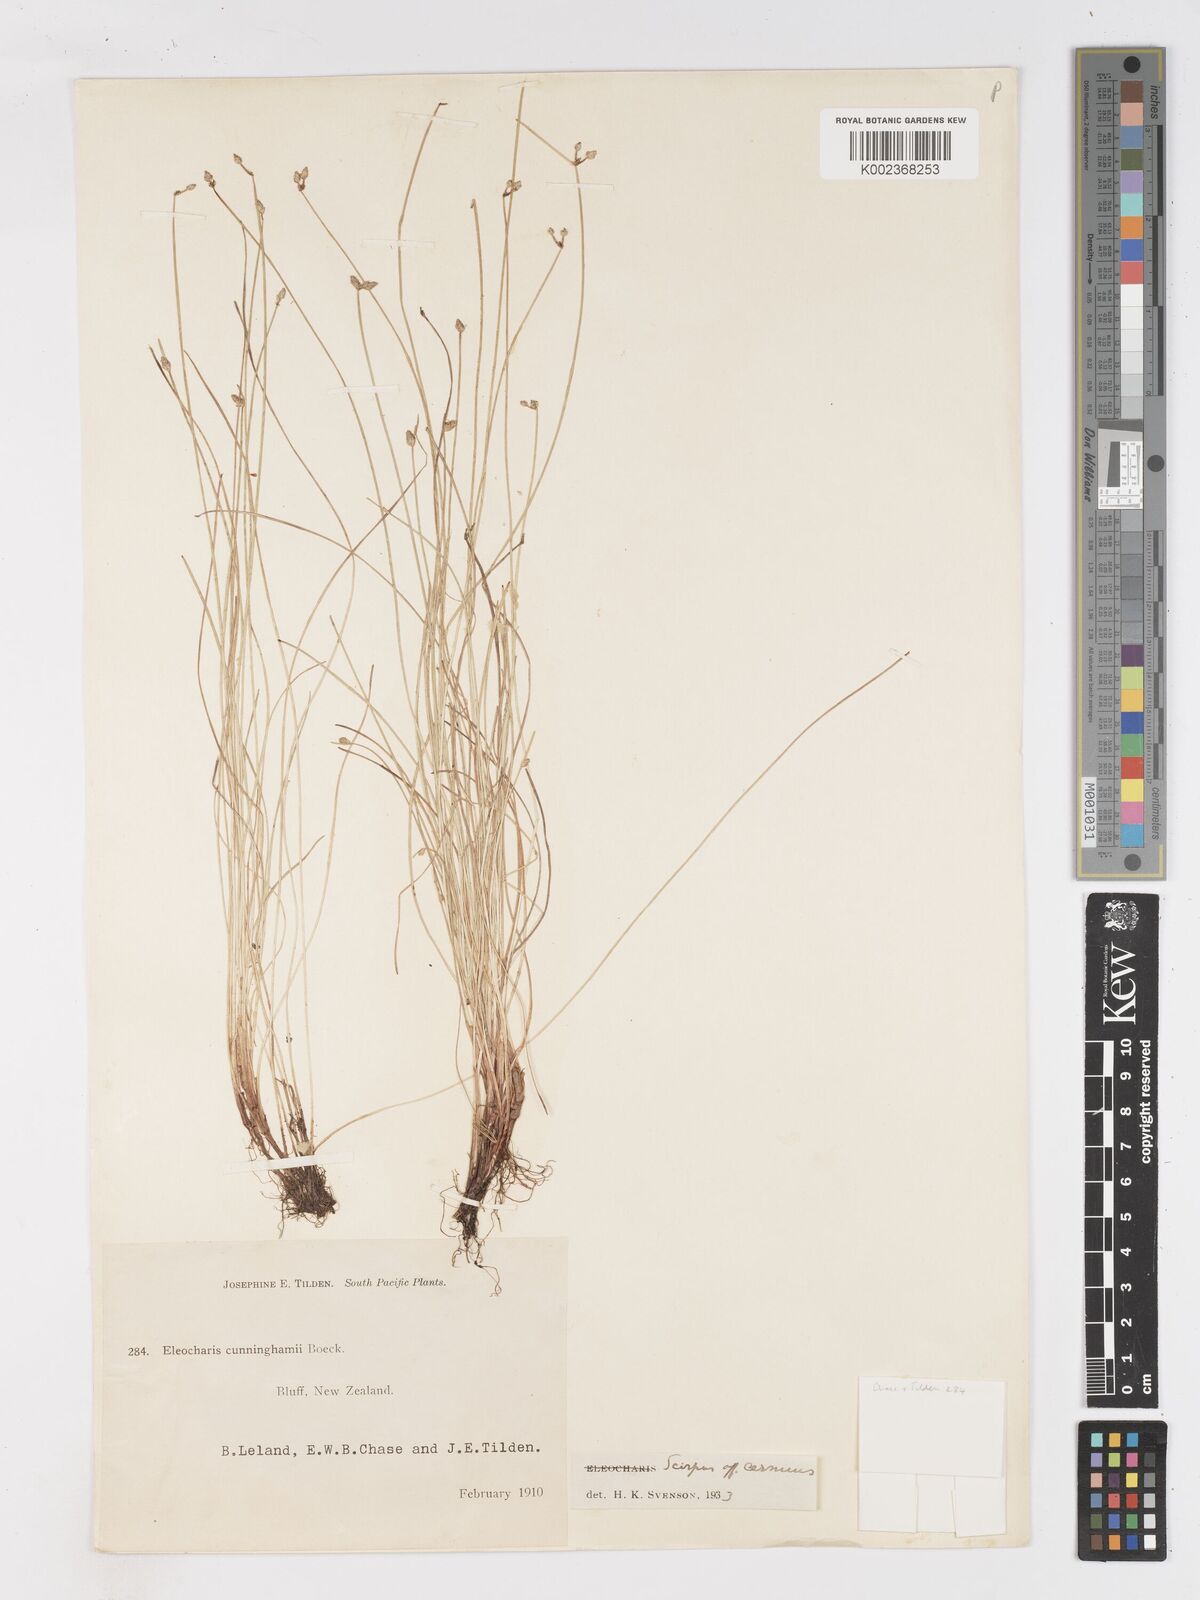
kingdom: Plantae
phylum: Tracheophyta
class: Liliopsida
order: Poales
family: Cyperaceae
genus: Isolepis
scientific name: Isolepis cernua
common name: Slender club-rush
